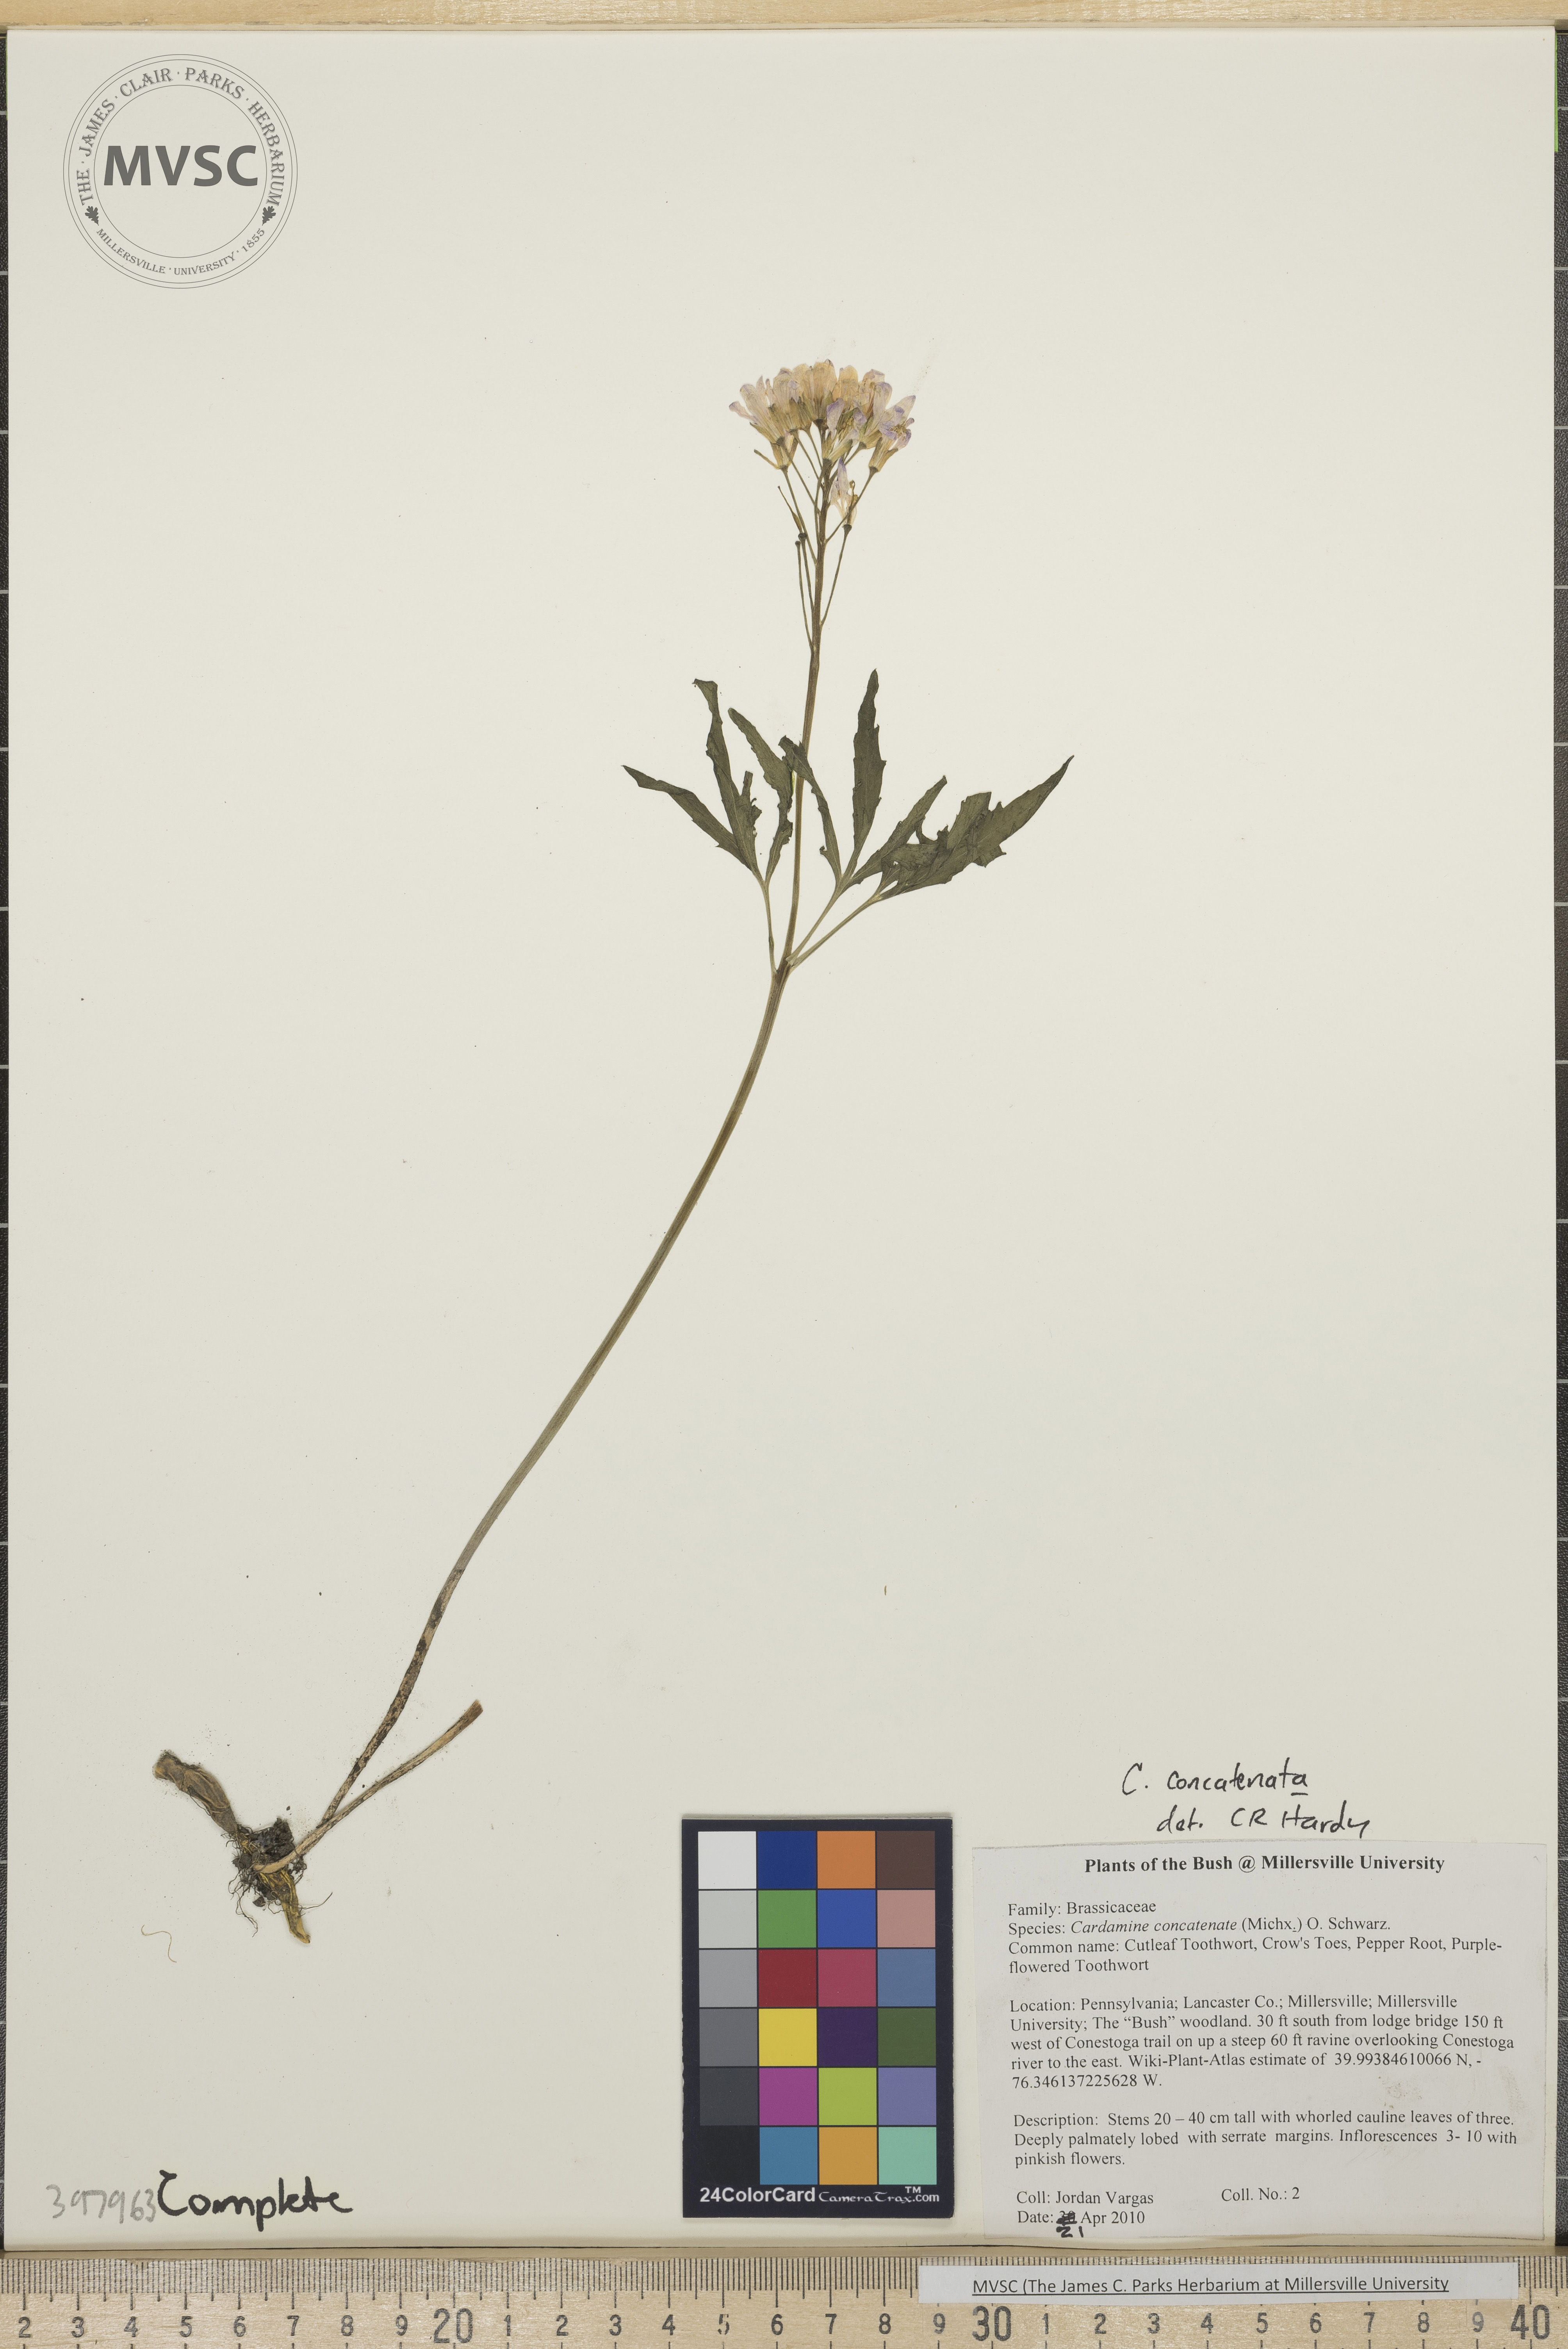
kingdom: Plantae
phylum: Tracheophyta
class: Magnoliopsida
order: Brassicales
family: Brassicaceae
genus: Cardamine
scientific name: Cardamine concatenata
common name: Toothwort
